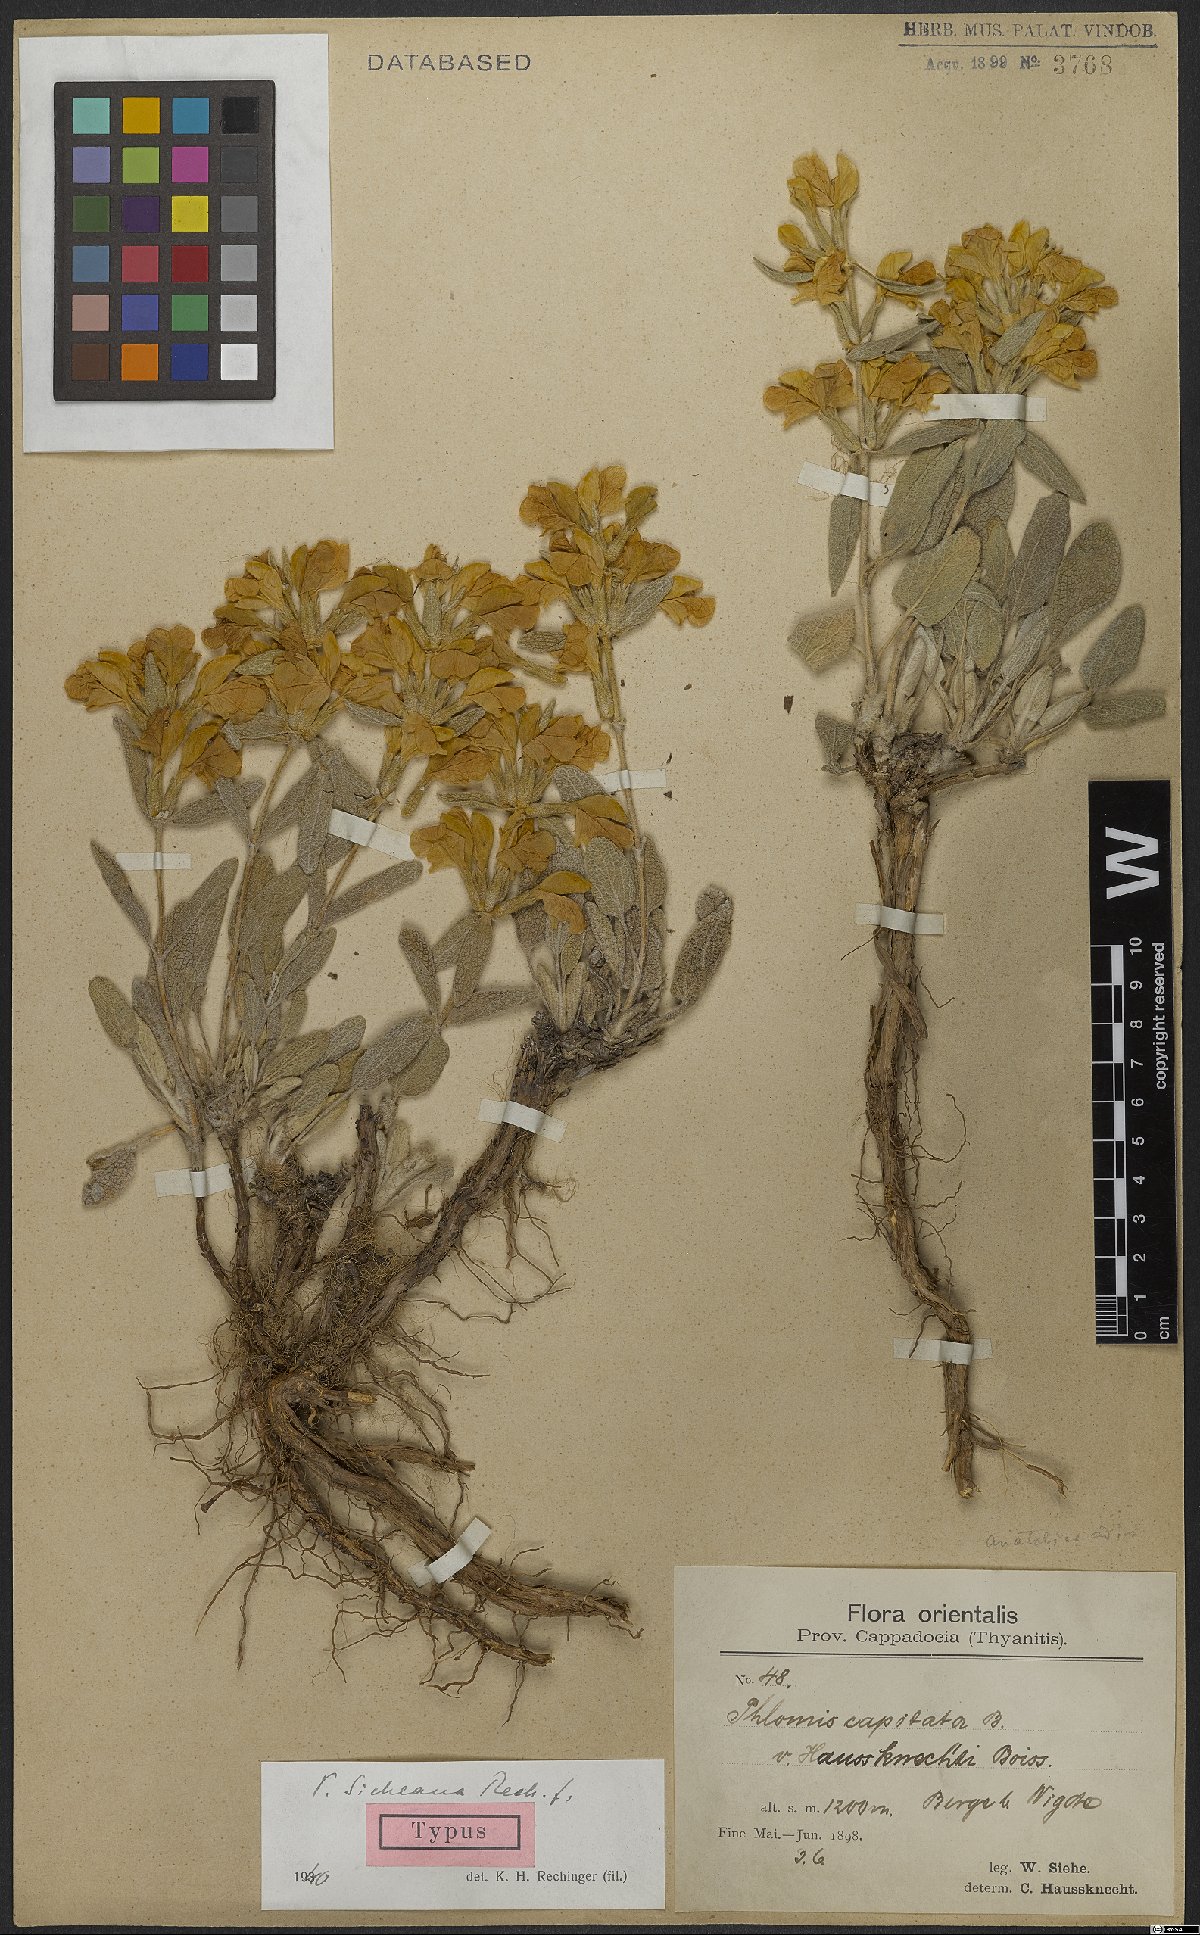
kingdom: Plantae
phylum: Tracheophyta
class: Magnoliopsida
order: Lamiales
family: Lamiaceae
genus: Phlomis
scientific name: Phlomis sieheana
